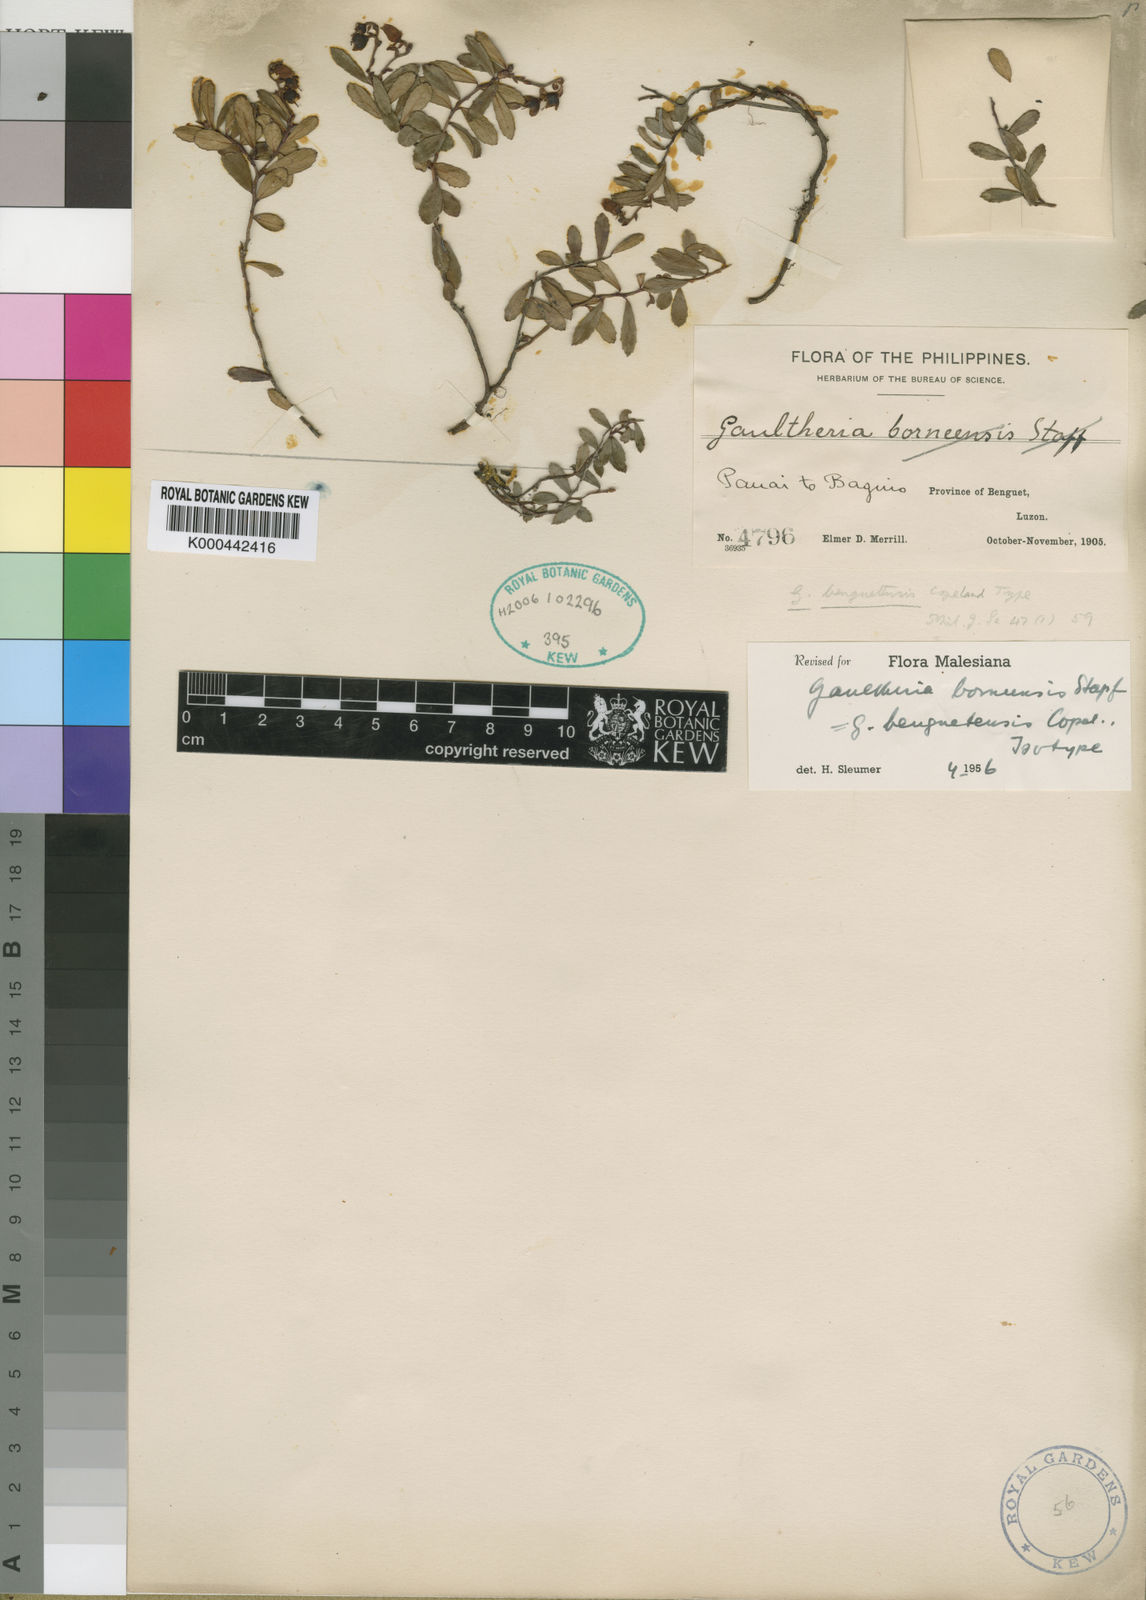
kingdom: Plantae
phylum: Tracheophyta
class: Magnoliopsida
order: Ericales
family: Ericaceae
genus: Gaultheria
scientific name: Gaultheria borneensis
